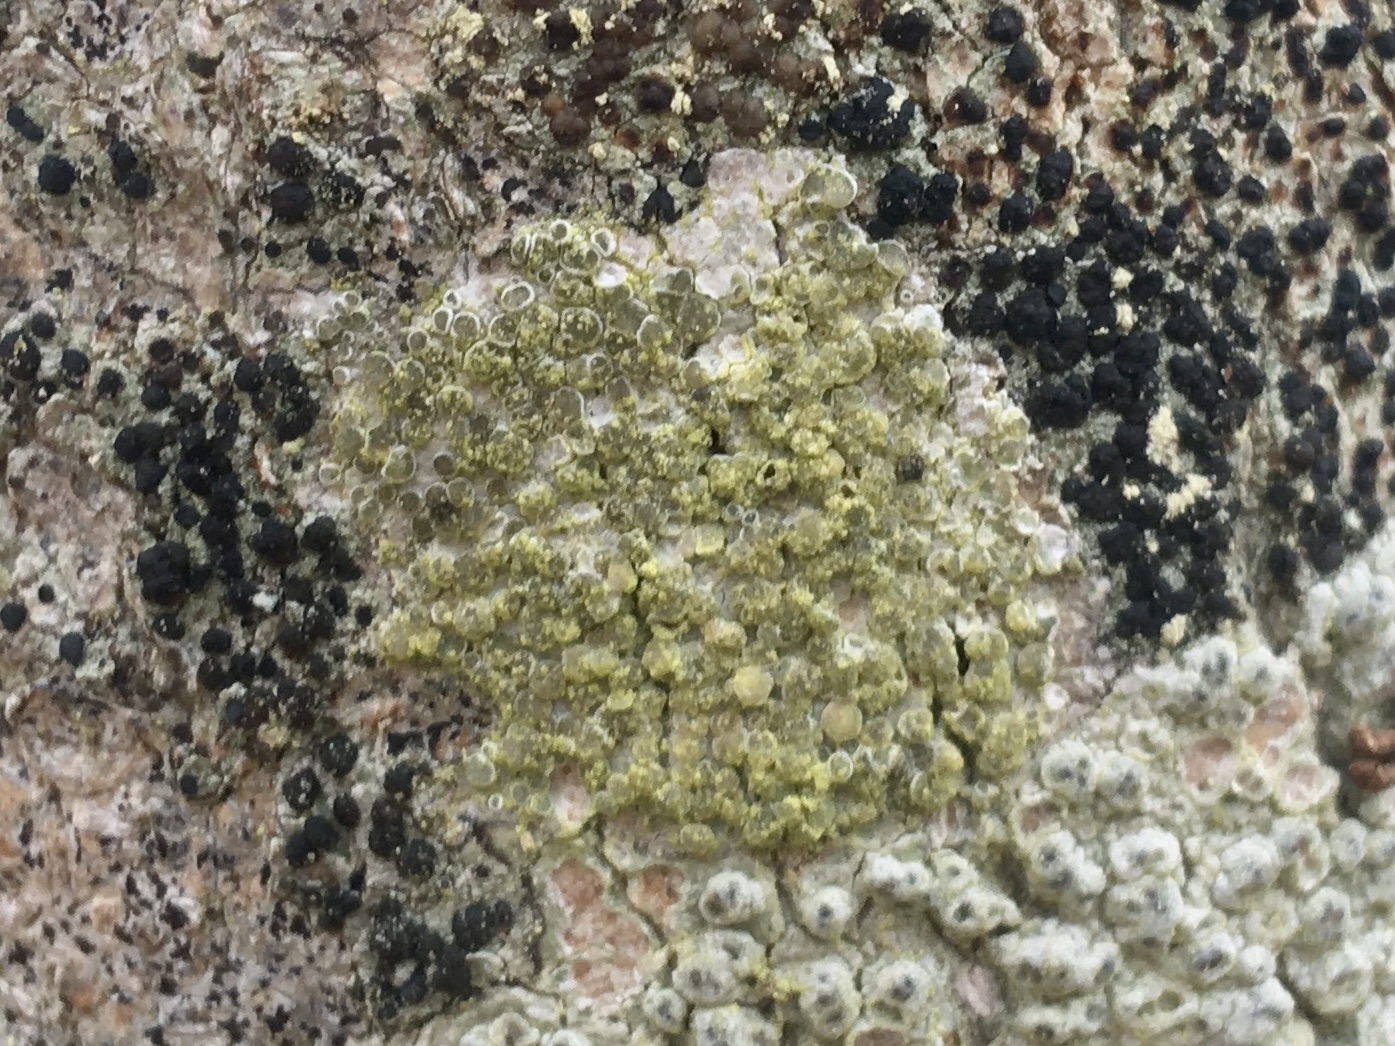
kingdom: Fungi
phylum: Ascomycota
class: Lecanoromycetes
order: Lecanorales
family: Lecanoraceae
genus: Lecanora
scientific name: Lecanora
